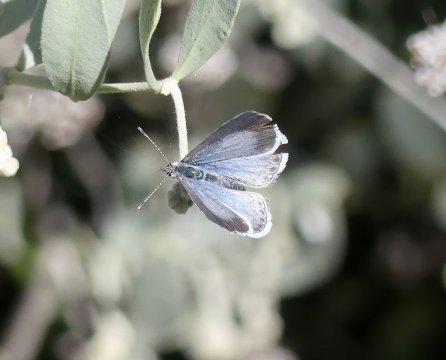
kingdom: Animalia
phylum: Arthropoda
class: Insecta
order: Lepidoptera
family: Lycaenidae
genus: Celastrina
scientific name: Celastrina ladon
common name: Echo Azure
